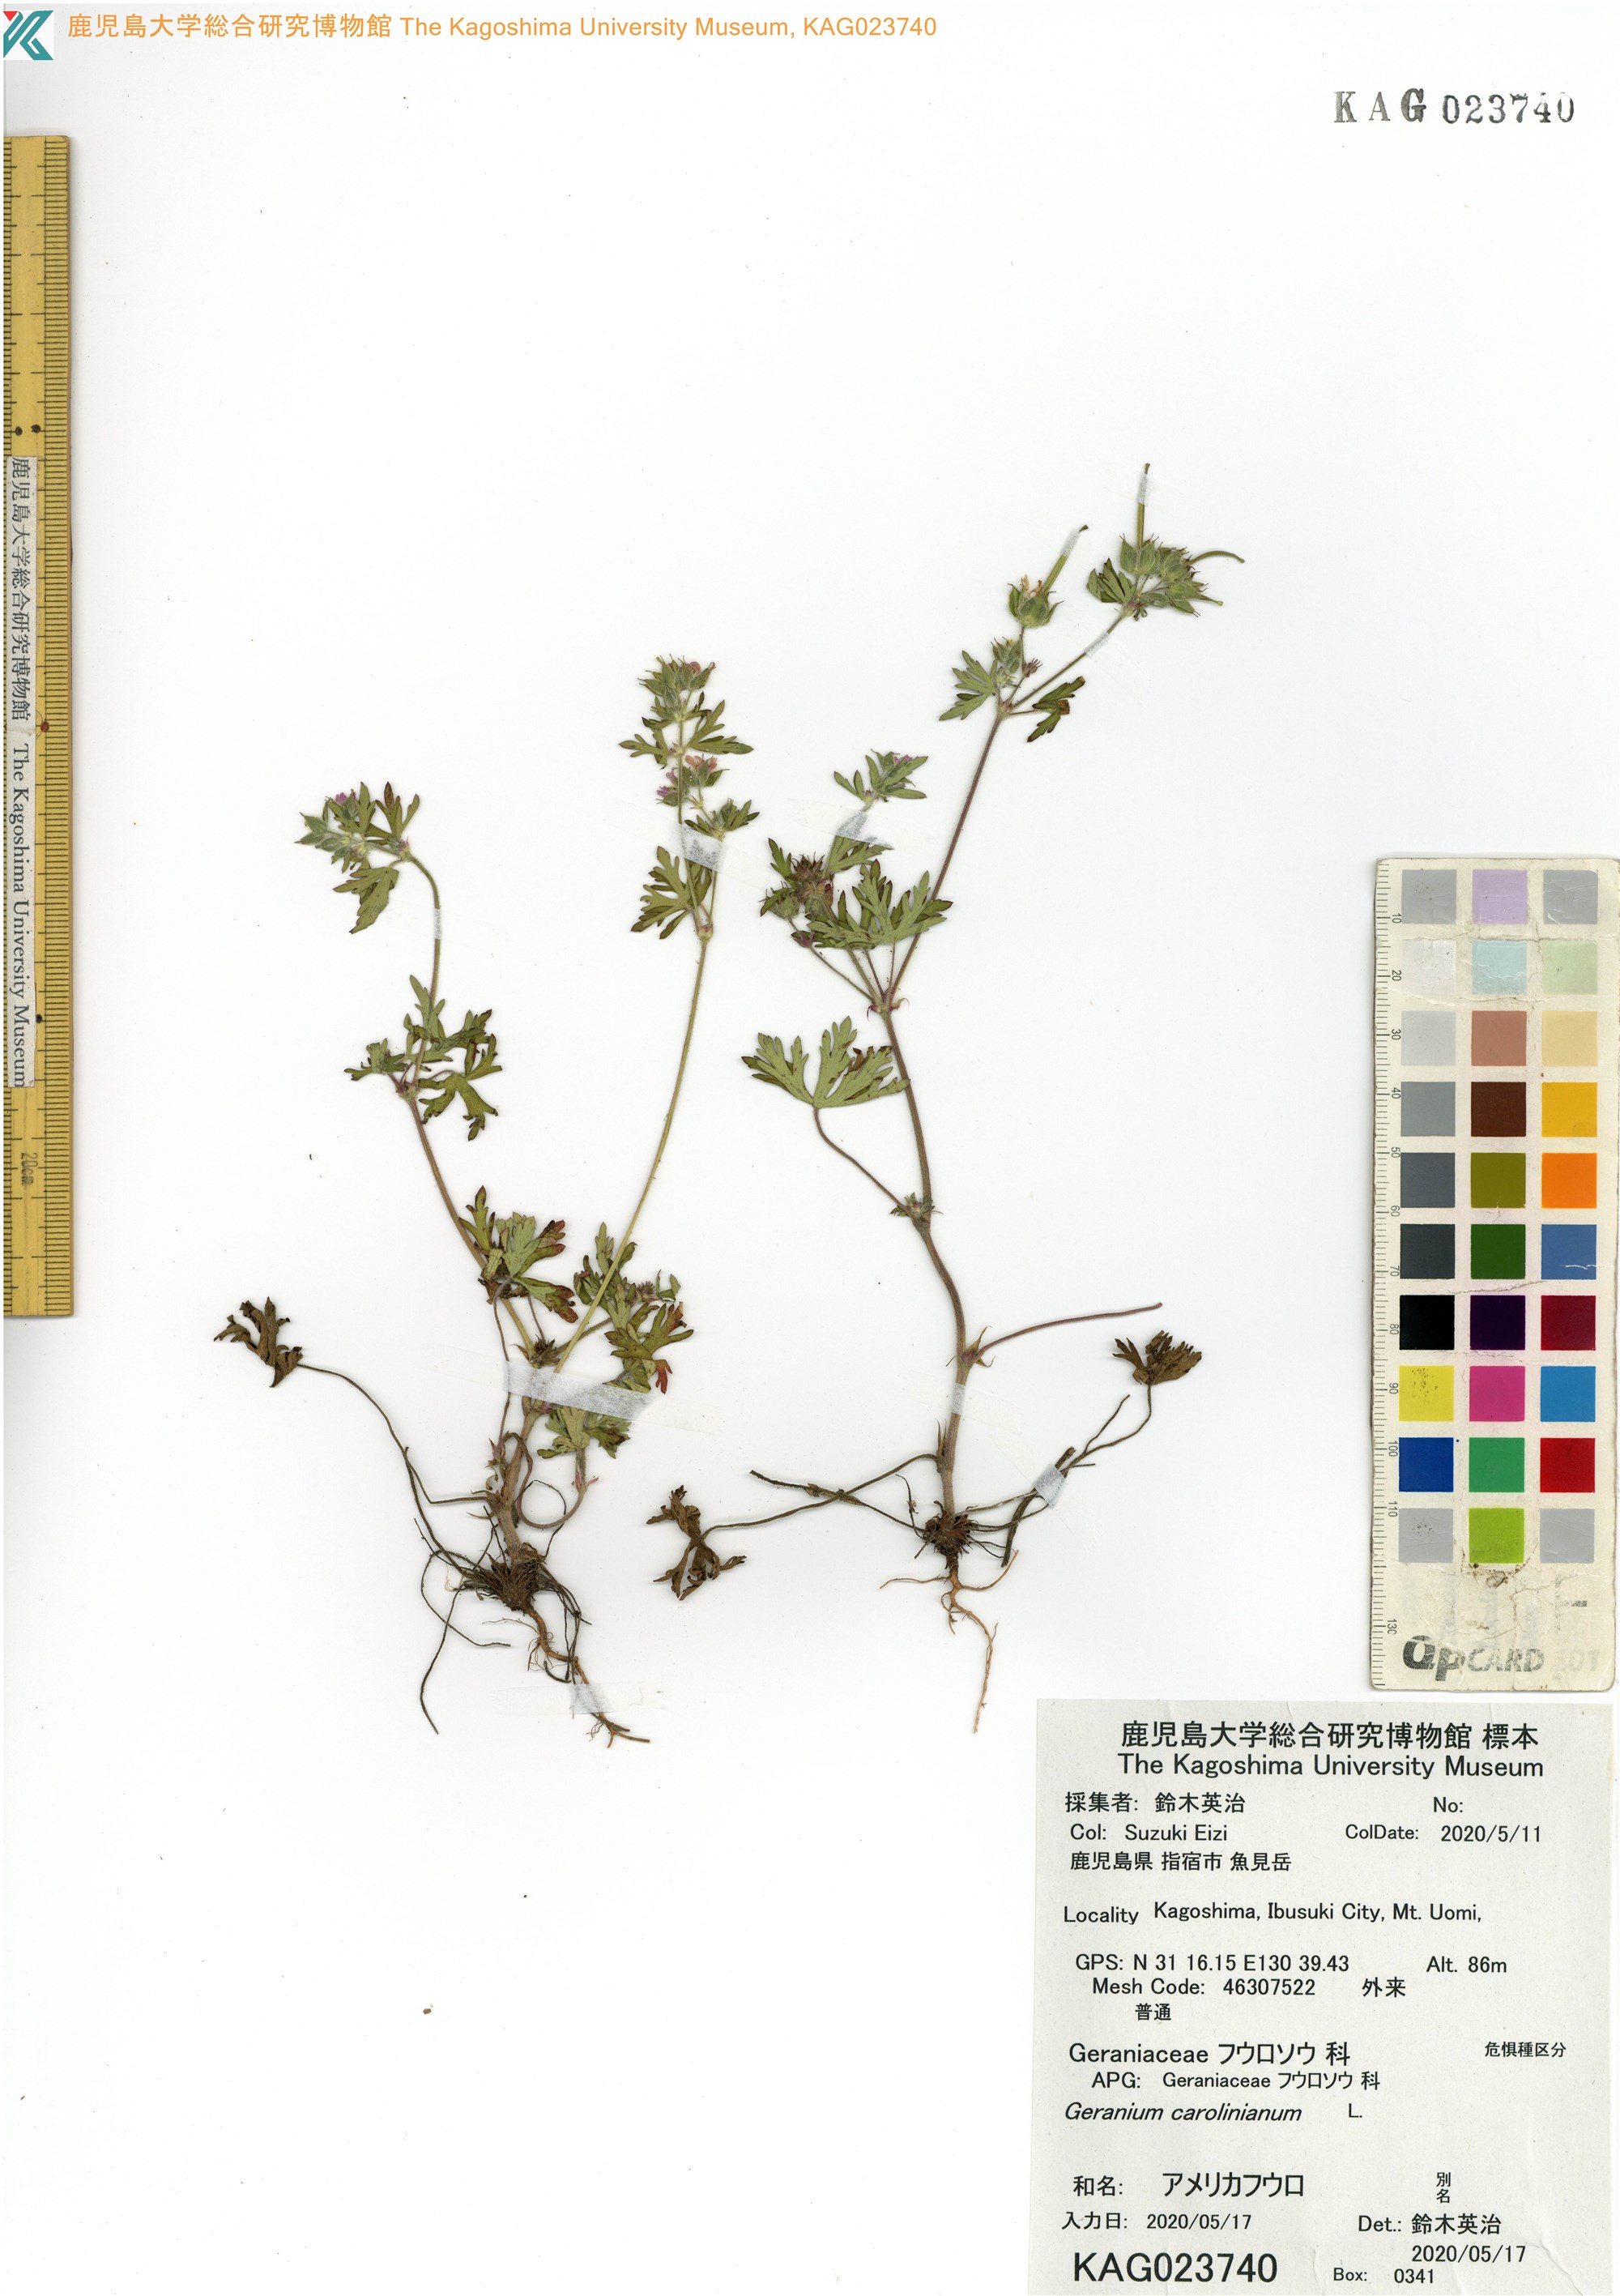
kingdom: Plantae
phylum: Tracheophyta
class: Magnoliopsida
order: Geraniales
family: Geraniaceae
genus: Geranium
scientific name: Geranium carolinianum
